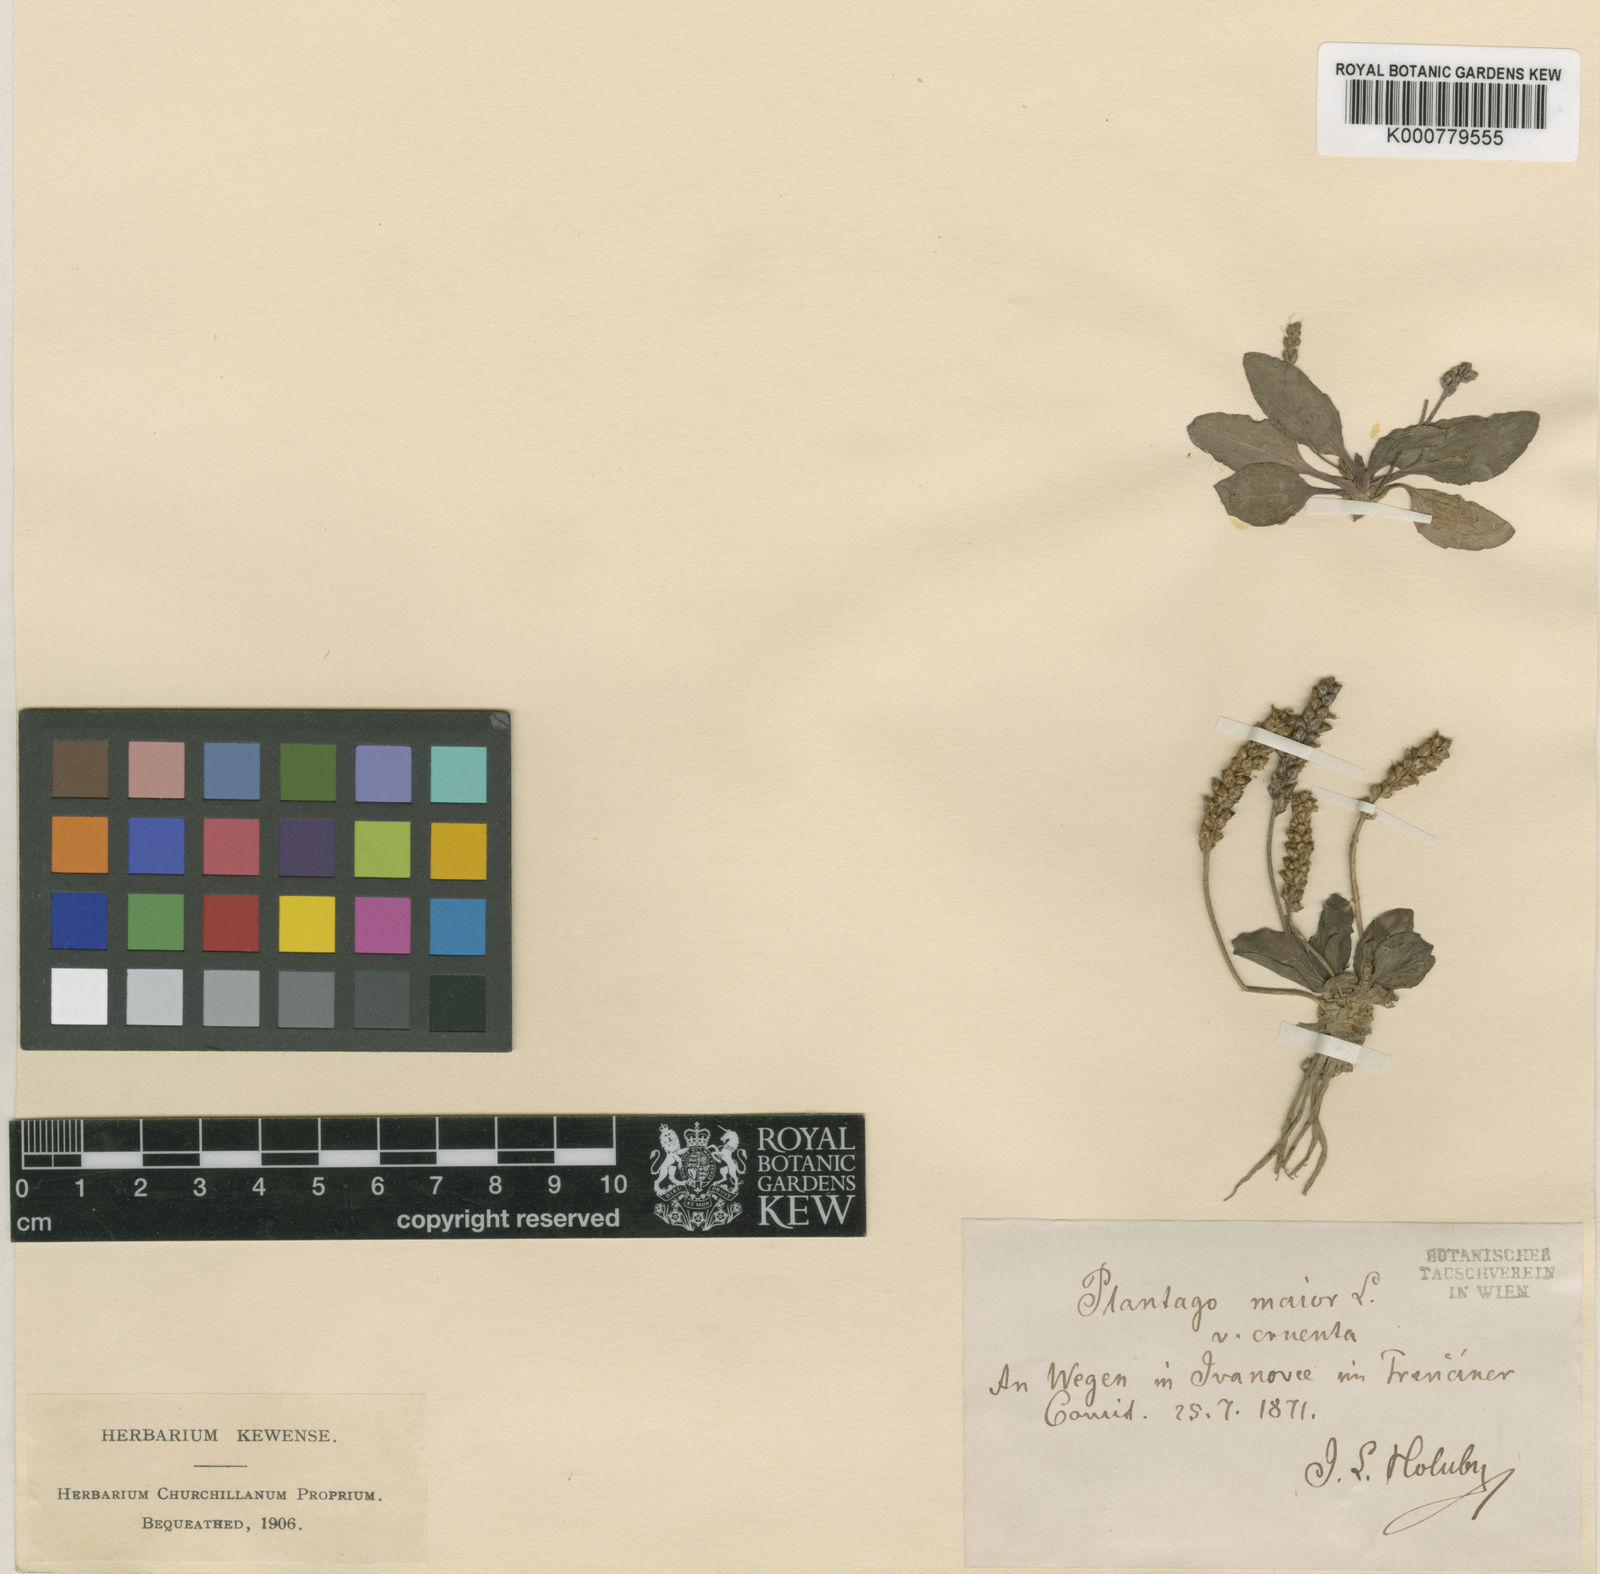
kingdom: Plantae
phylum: Tracheophyta
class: Magnoliopsida
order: Lamiales
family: Plantaginaceae
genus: Plantago
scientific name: Plantago major
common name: Common plantain
